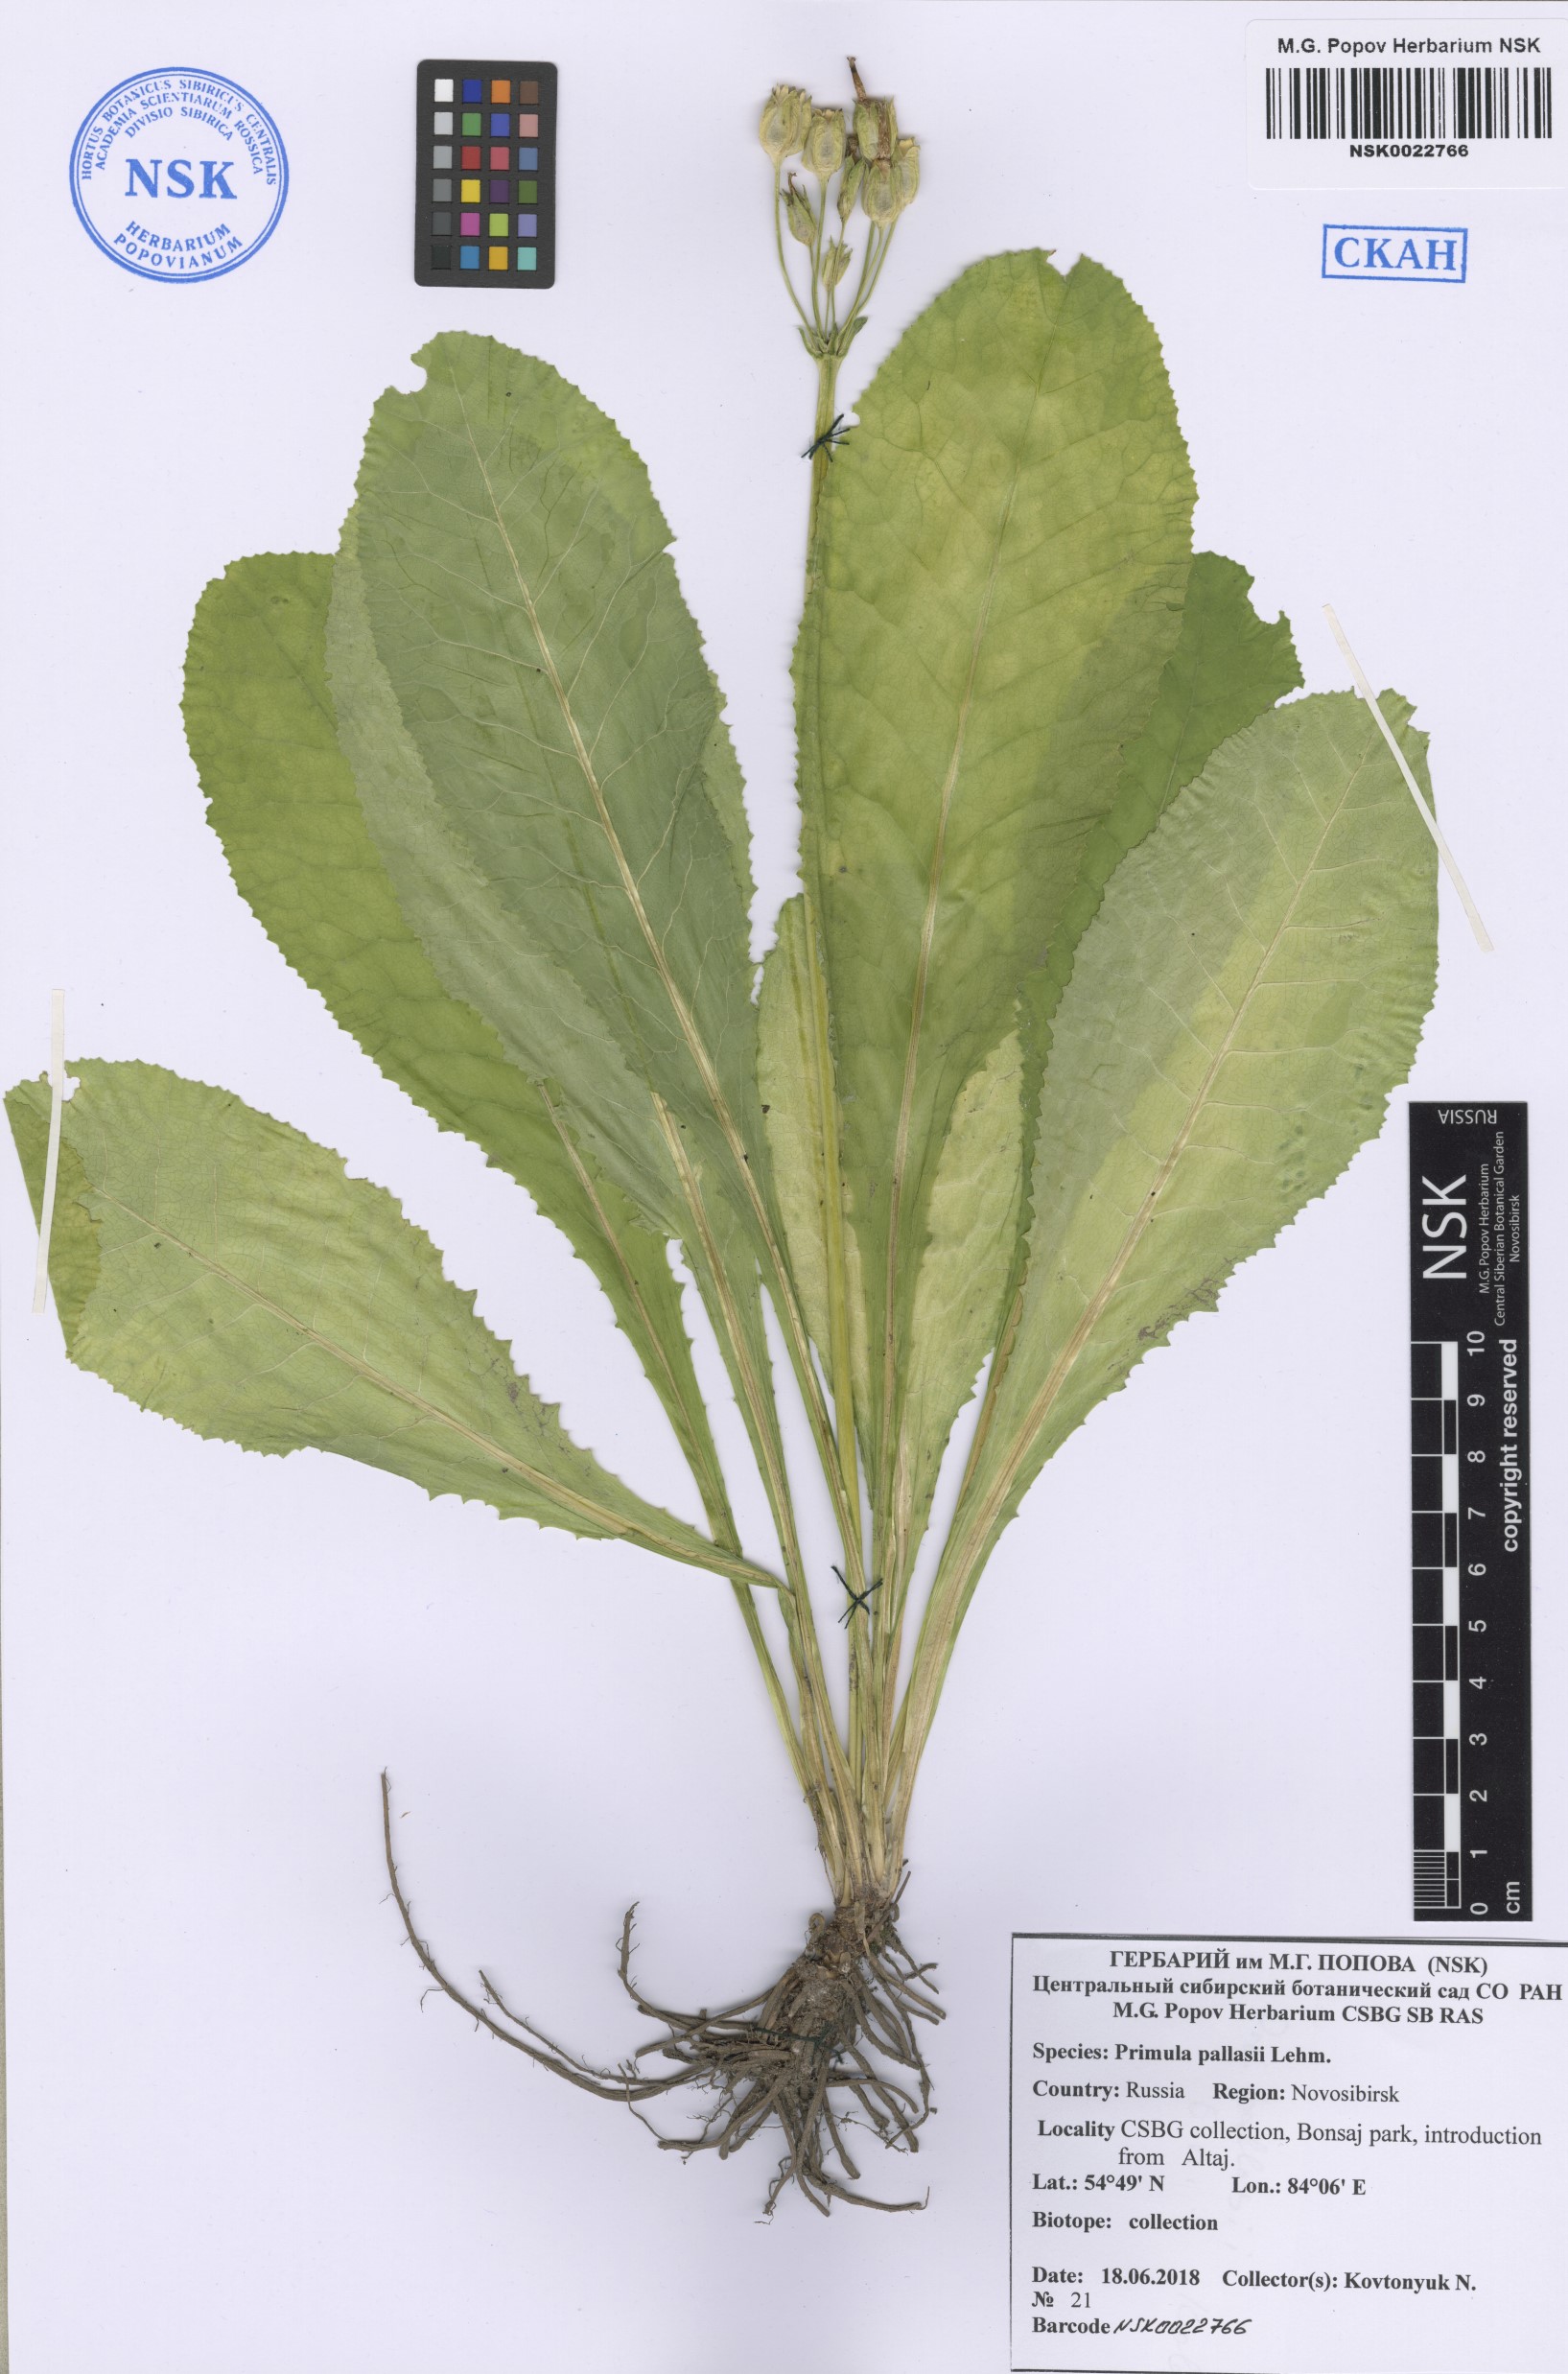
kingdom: Plantae
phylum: Tracheophyta
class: Magnoliopsida
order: Ericales
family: Primulaceae
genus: Primula
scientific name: Primula elatior
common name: Oxlip
